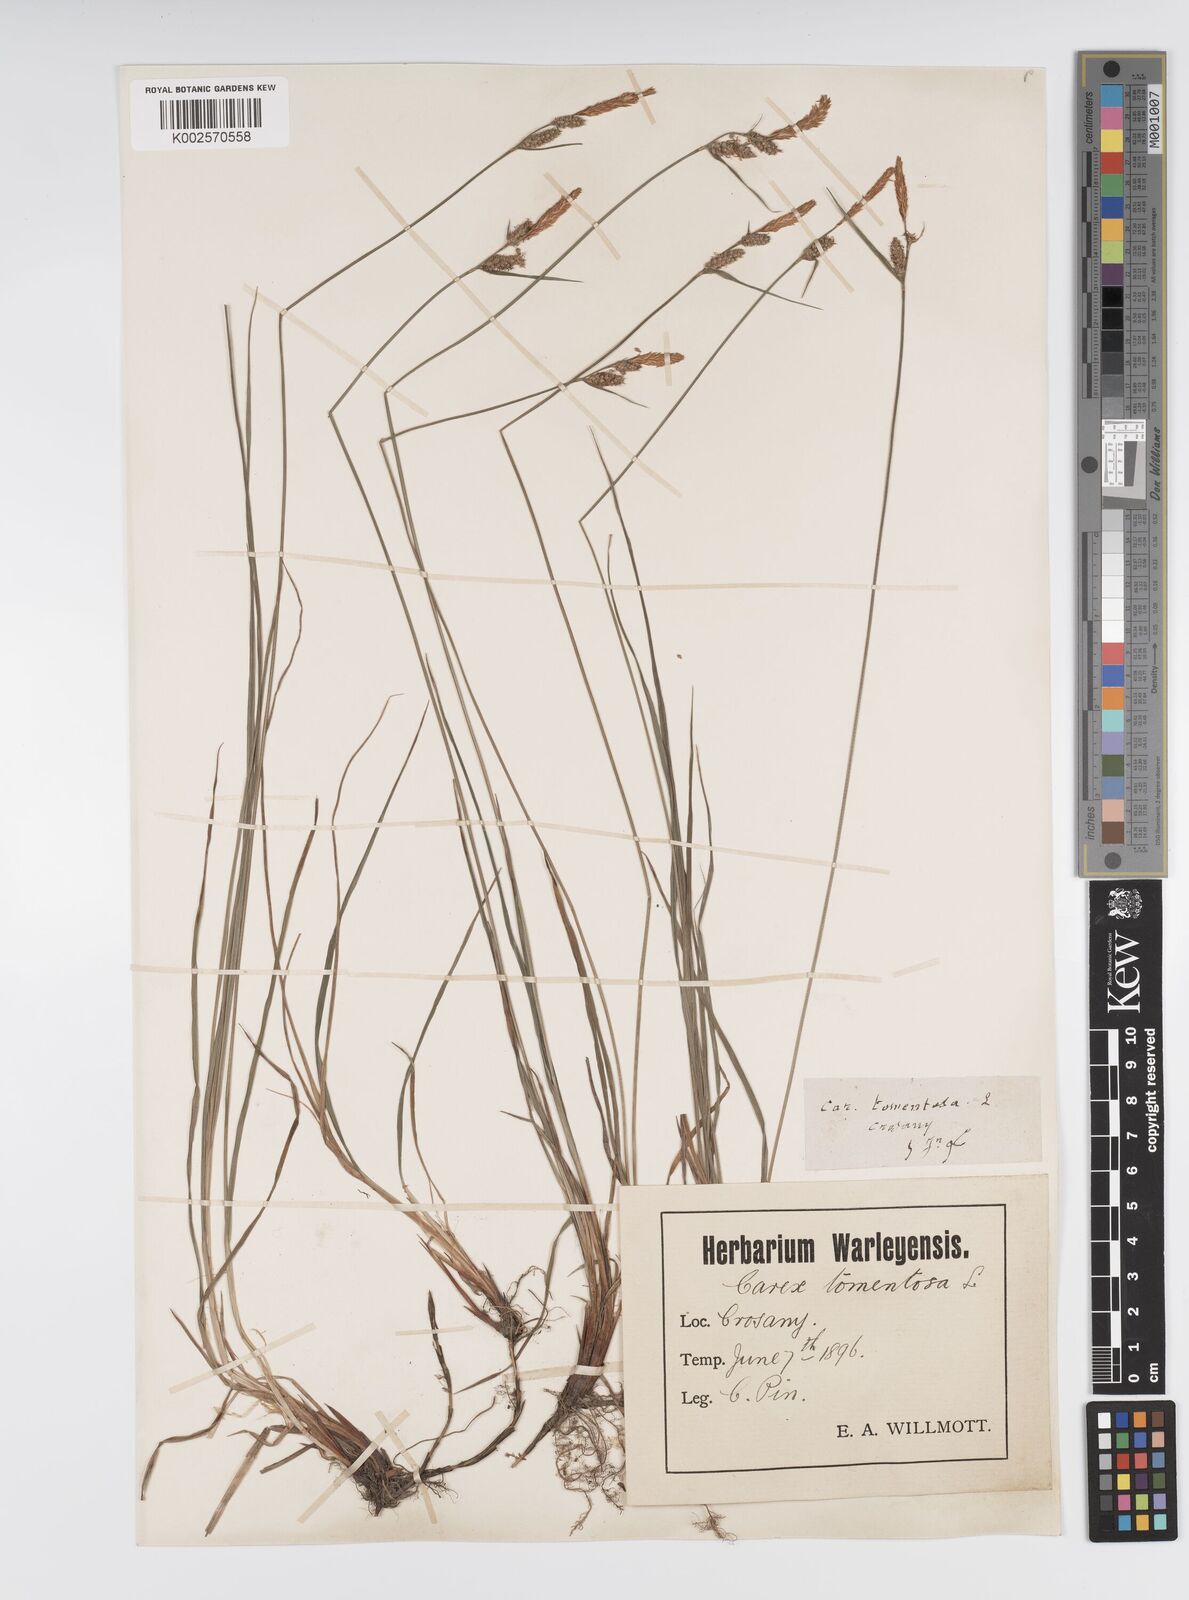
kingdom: Plantae
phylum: Tracheophyta
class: Liliopsida
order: Poales
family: Cyperaceae
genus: Carex
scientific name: Carex montana
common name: Soft-leaved sedge
